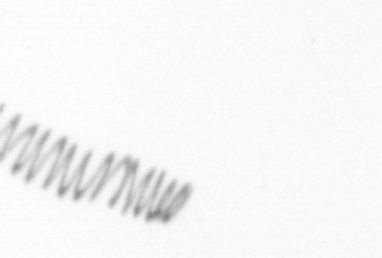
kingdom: Chromista
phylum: Ochrophyta
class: Bacillariophyceae
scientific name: Bacillariophyceae
